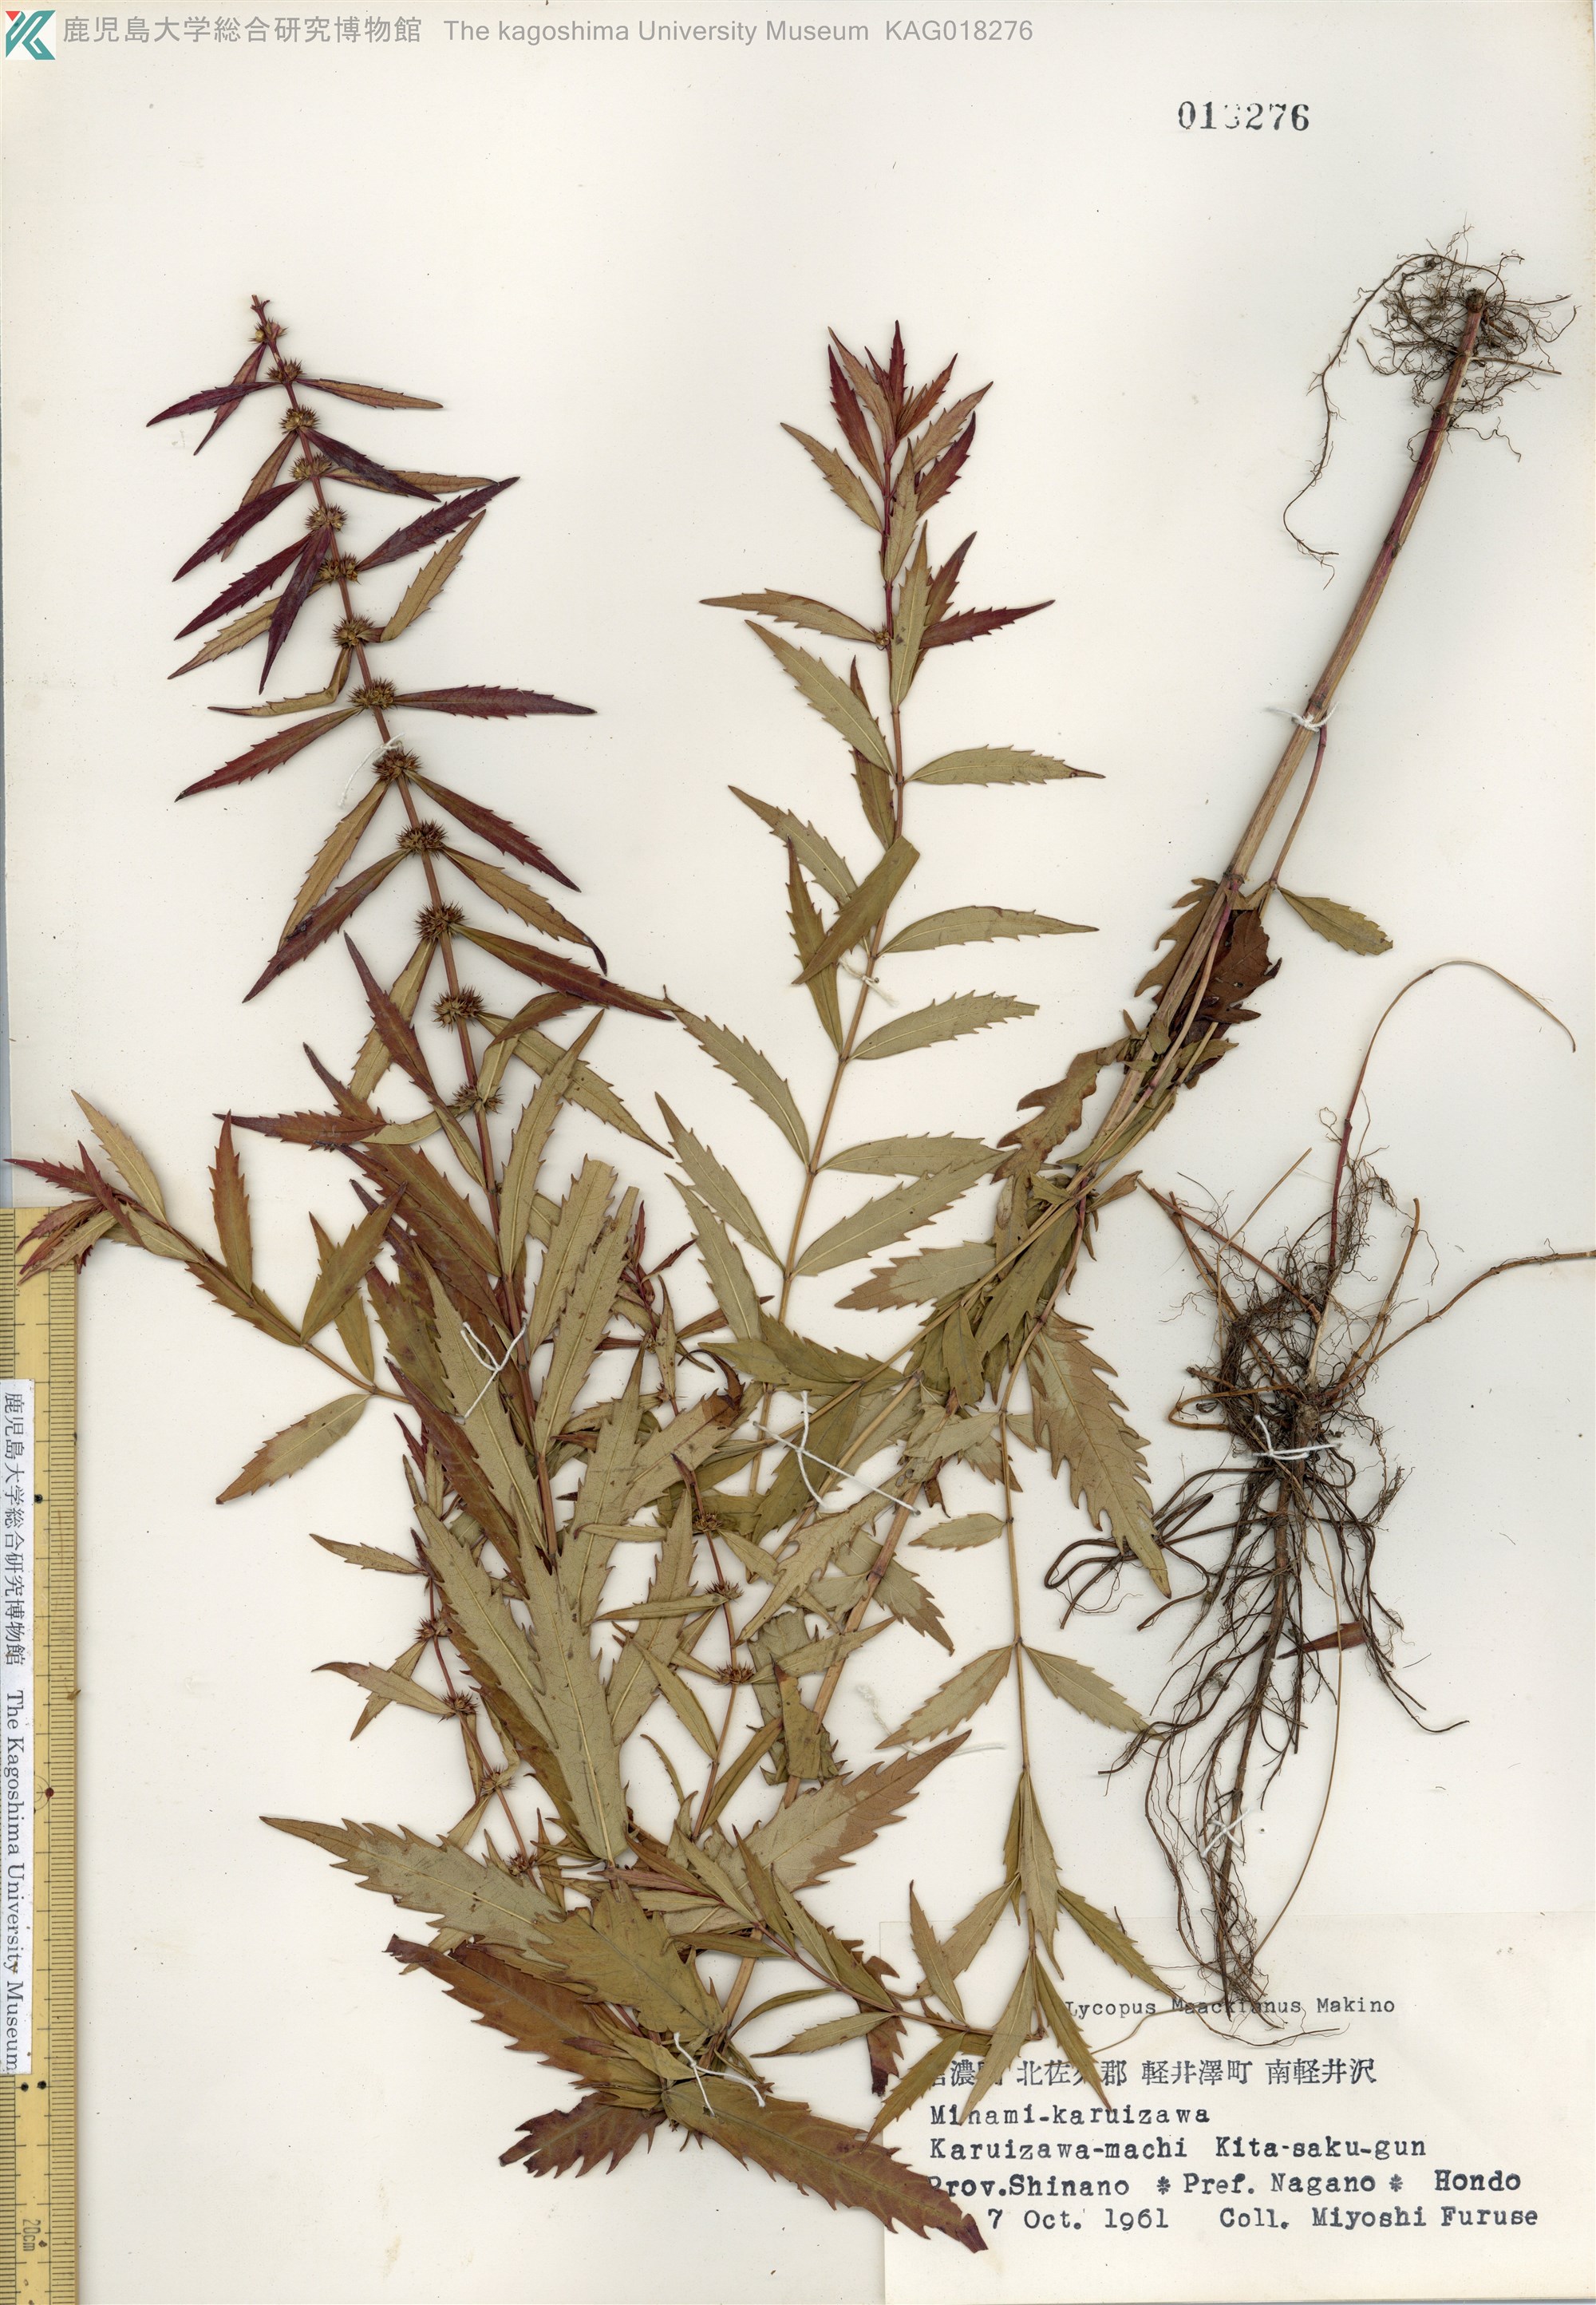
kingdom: Plantae
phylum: Tracheophyta
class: Magnoliopsida
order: Lamiales
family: Lamiaceae
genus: Lycopus
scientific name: Lycopus lucidus
